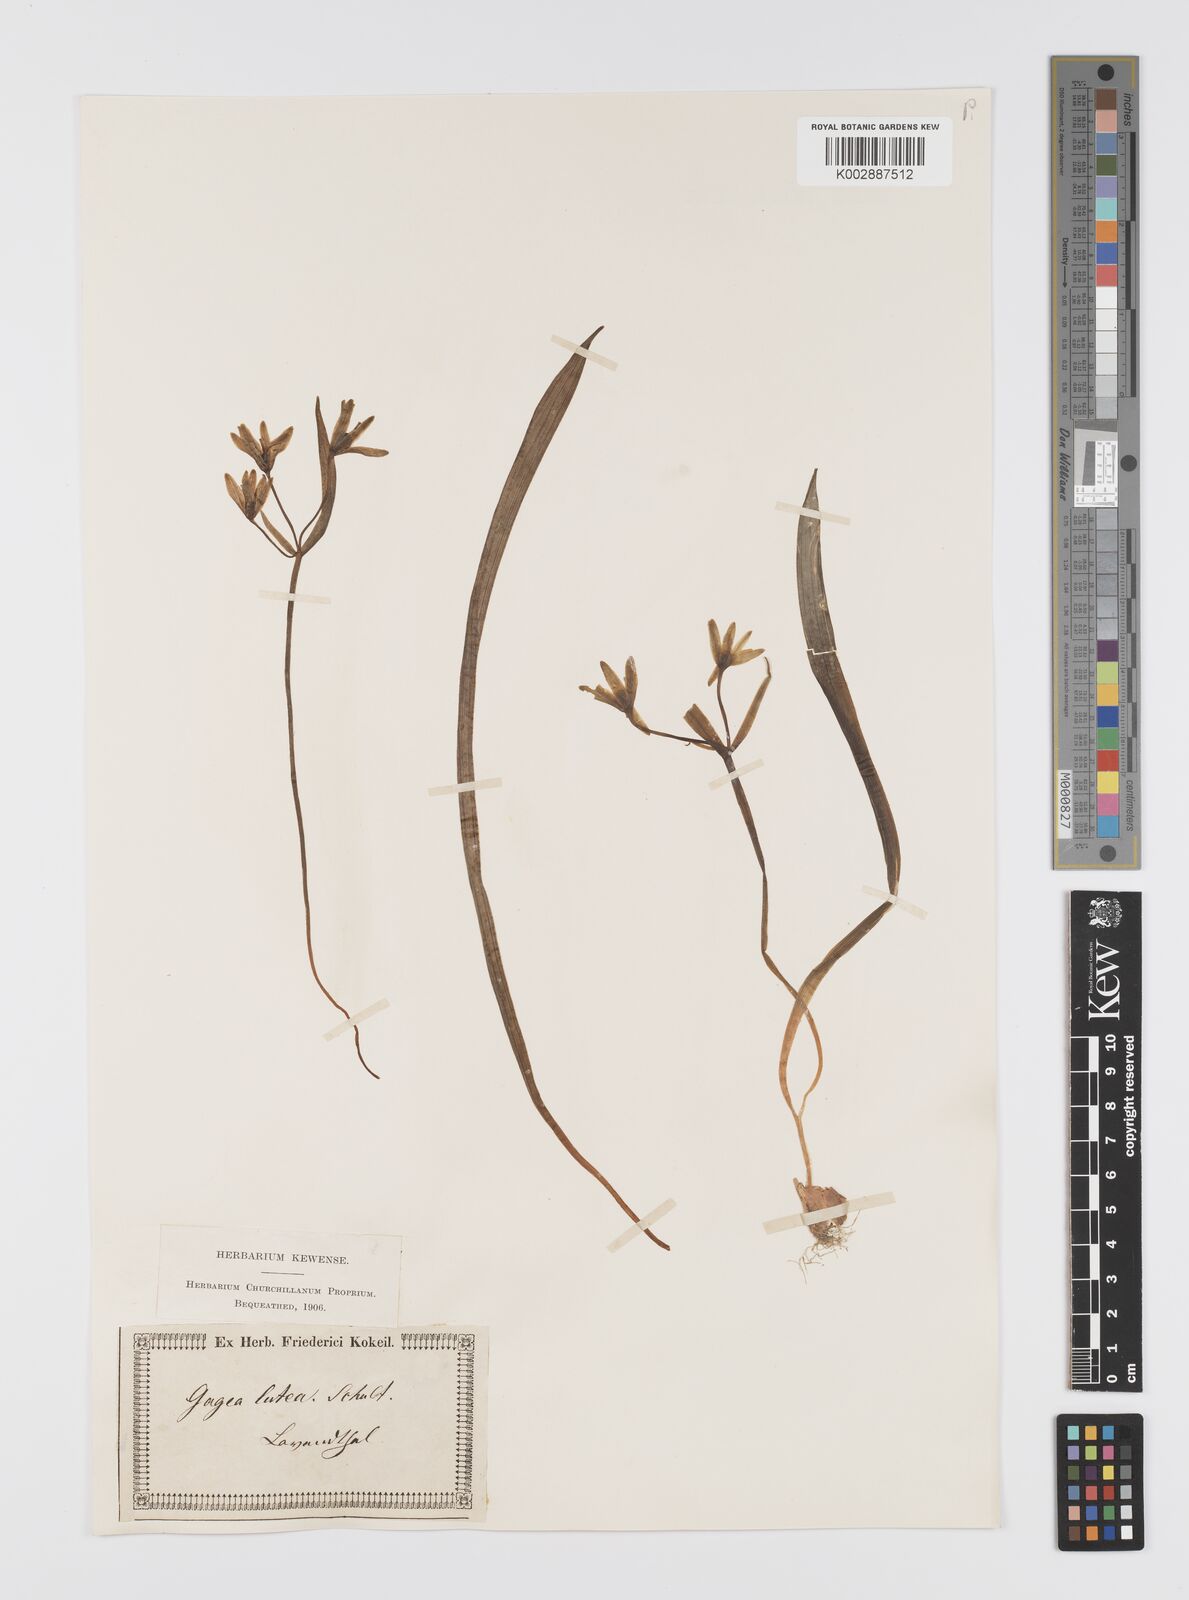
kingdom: Plantae
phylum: Tracheophyta
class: Liliopsida
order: Liliales
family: Liliaceae
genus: Gagea
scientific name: Gagea lutea
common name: Yellow star-of-bethlehem
